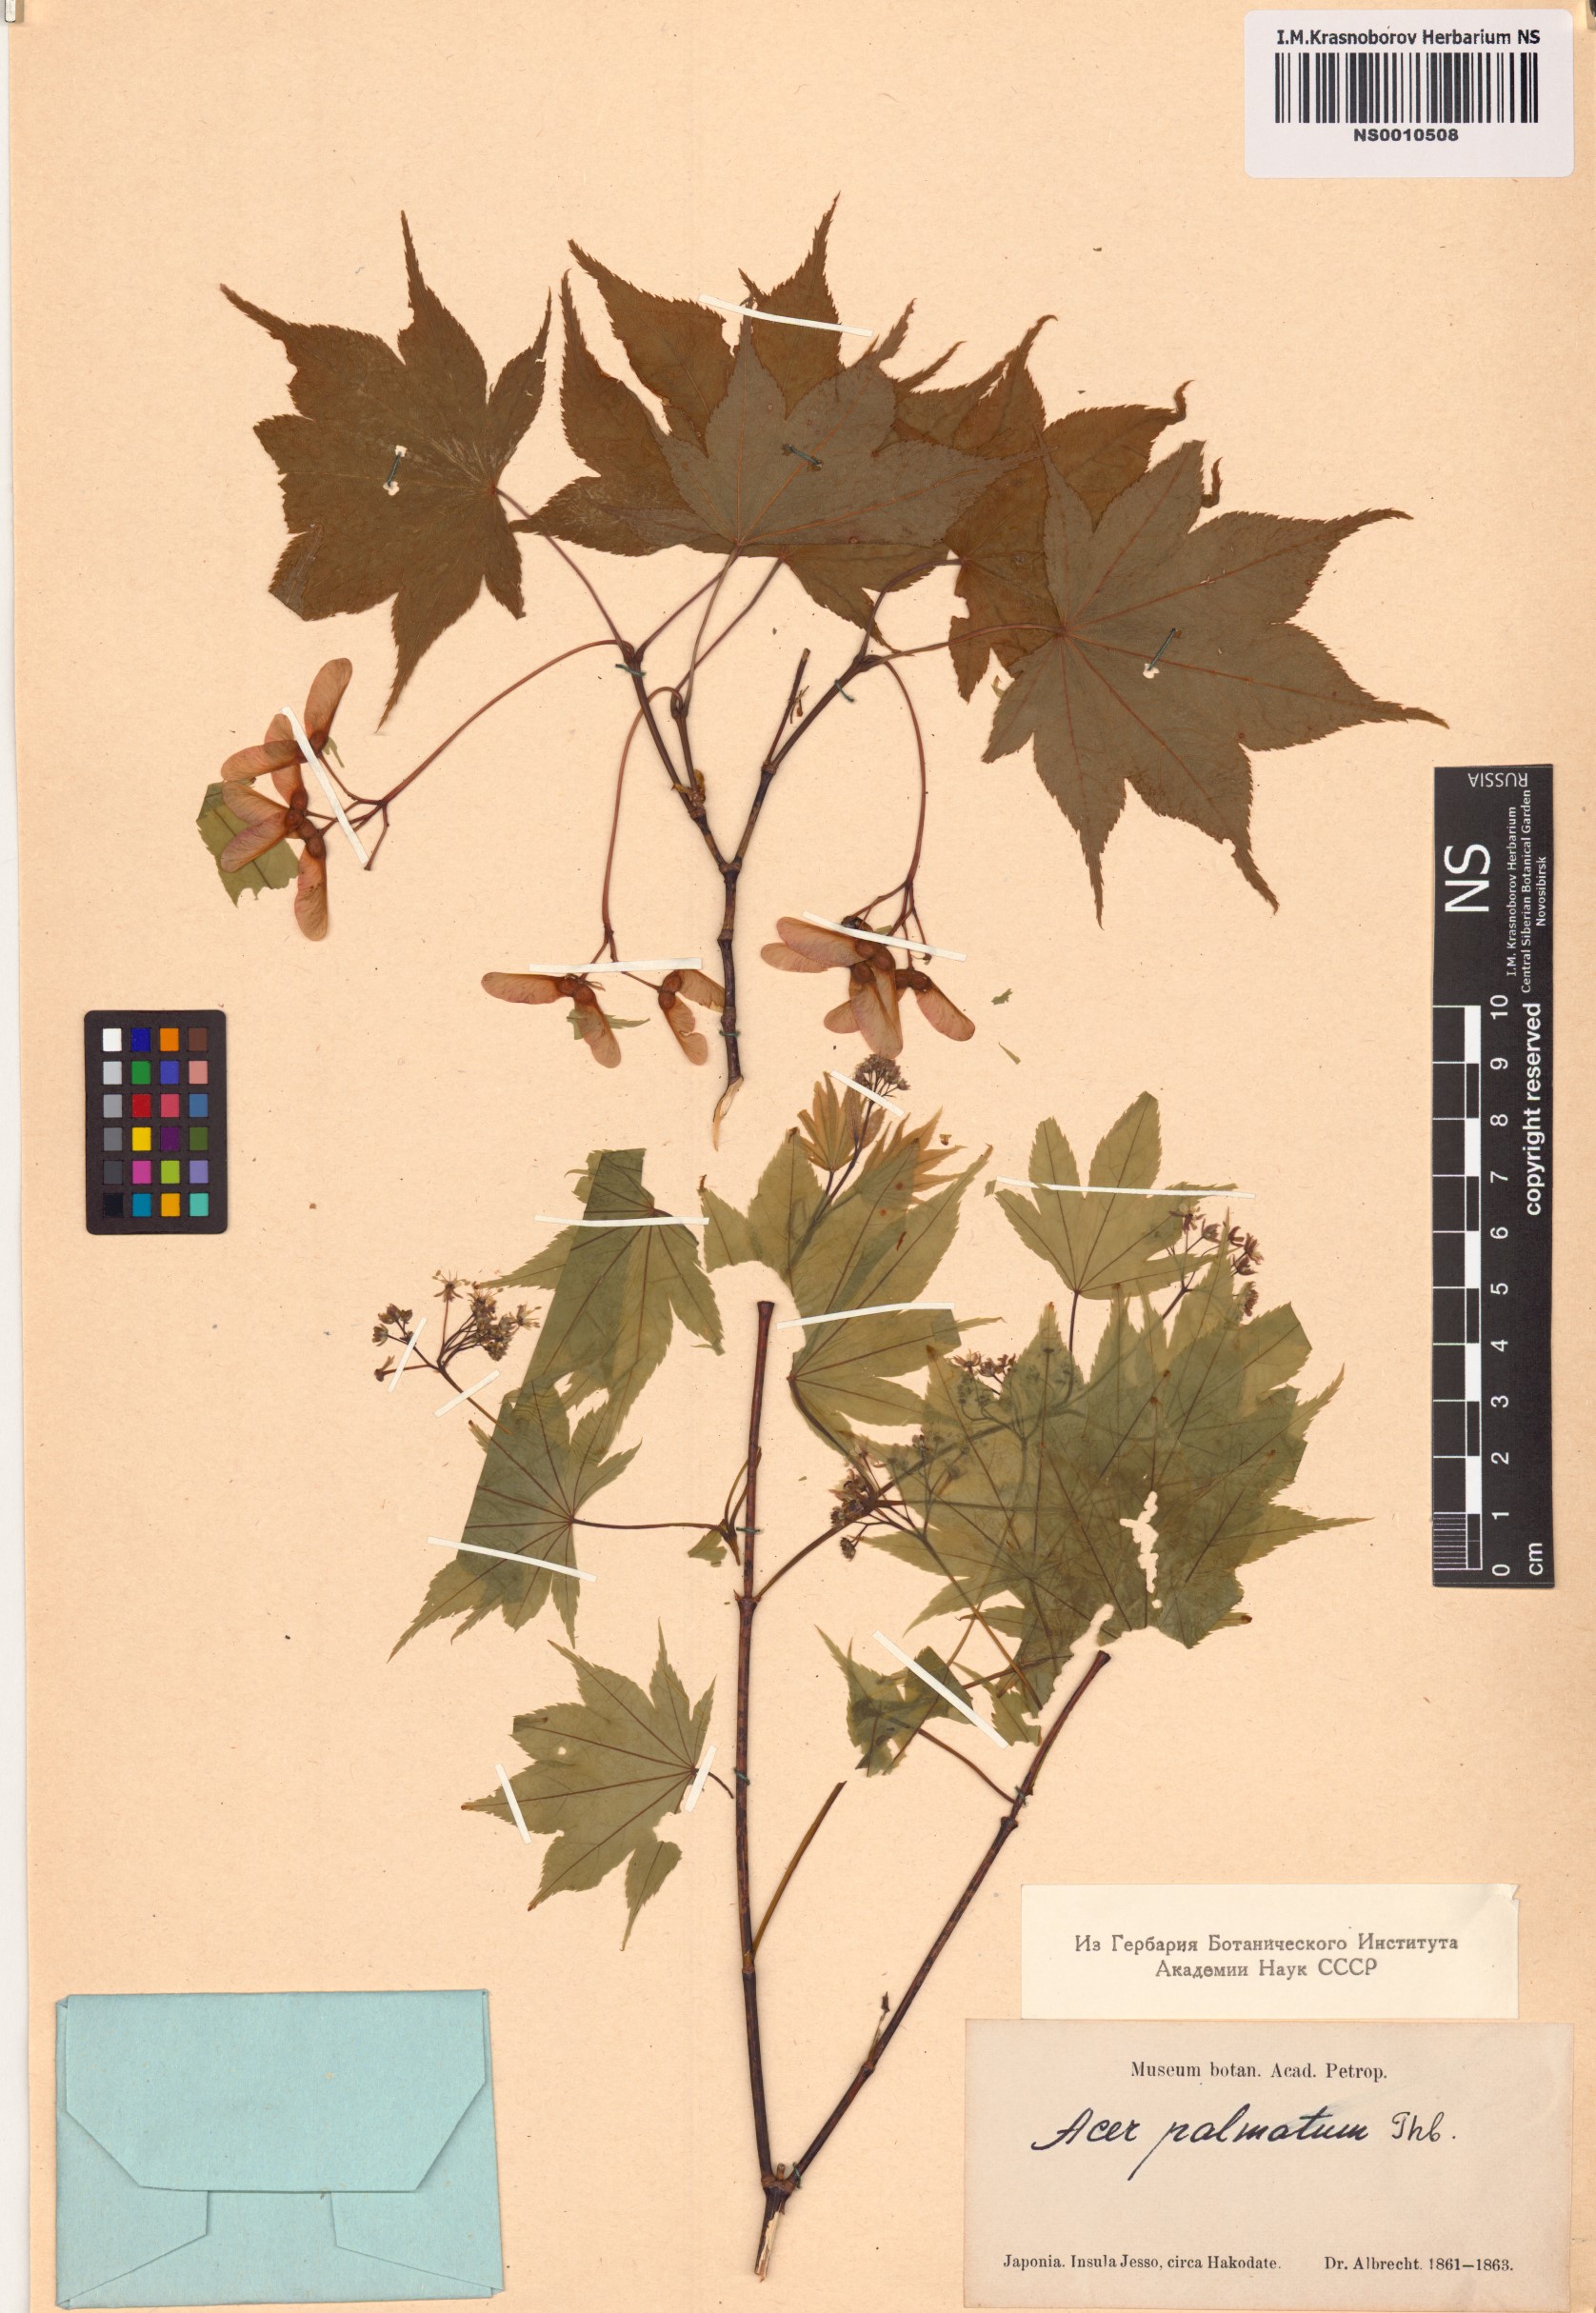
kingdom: Plantae
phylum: Tracheophyta
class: Magnoliopsida
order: Sapindales
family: Sapindaceae
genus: Acer
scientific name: Acer palmatum
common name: Japanese maple
